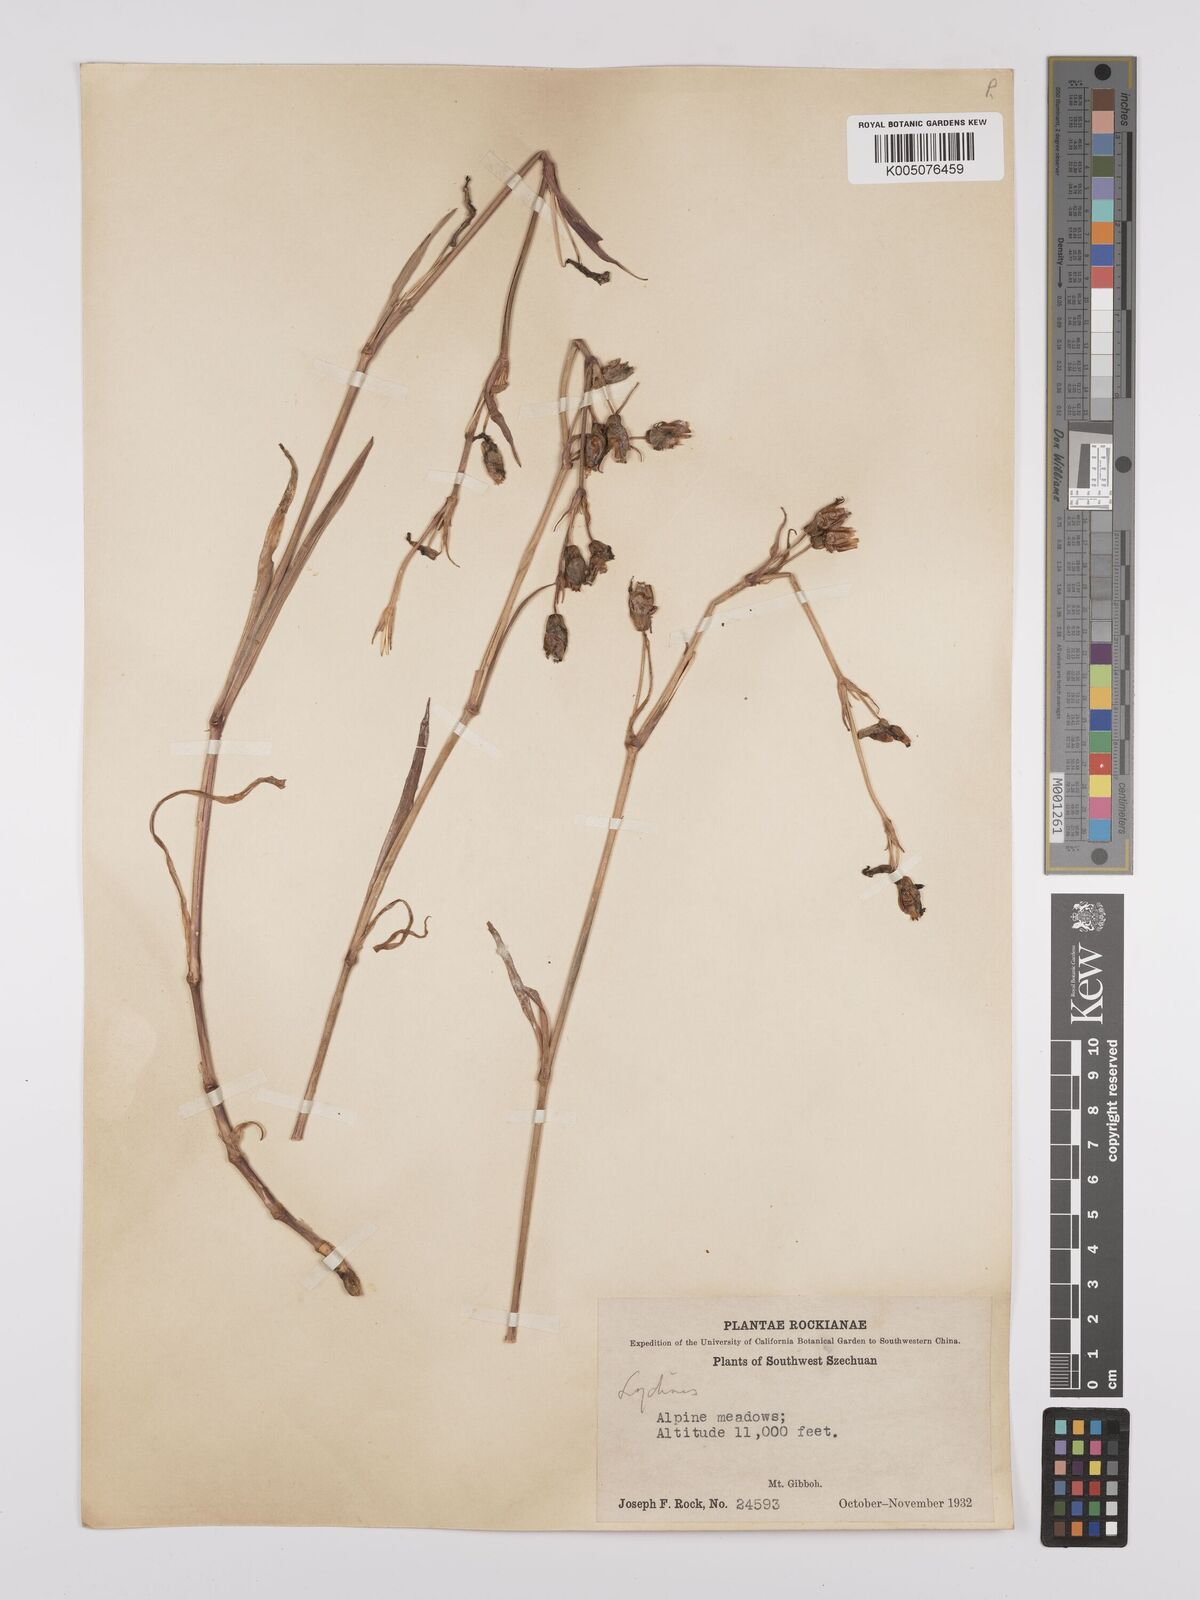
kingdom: Plantae
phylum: Tracheophyta
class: Magnoliopsida
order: Caryophyllales
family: Caryophyllaceae
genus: Silene
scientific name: Silene
